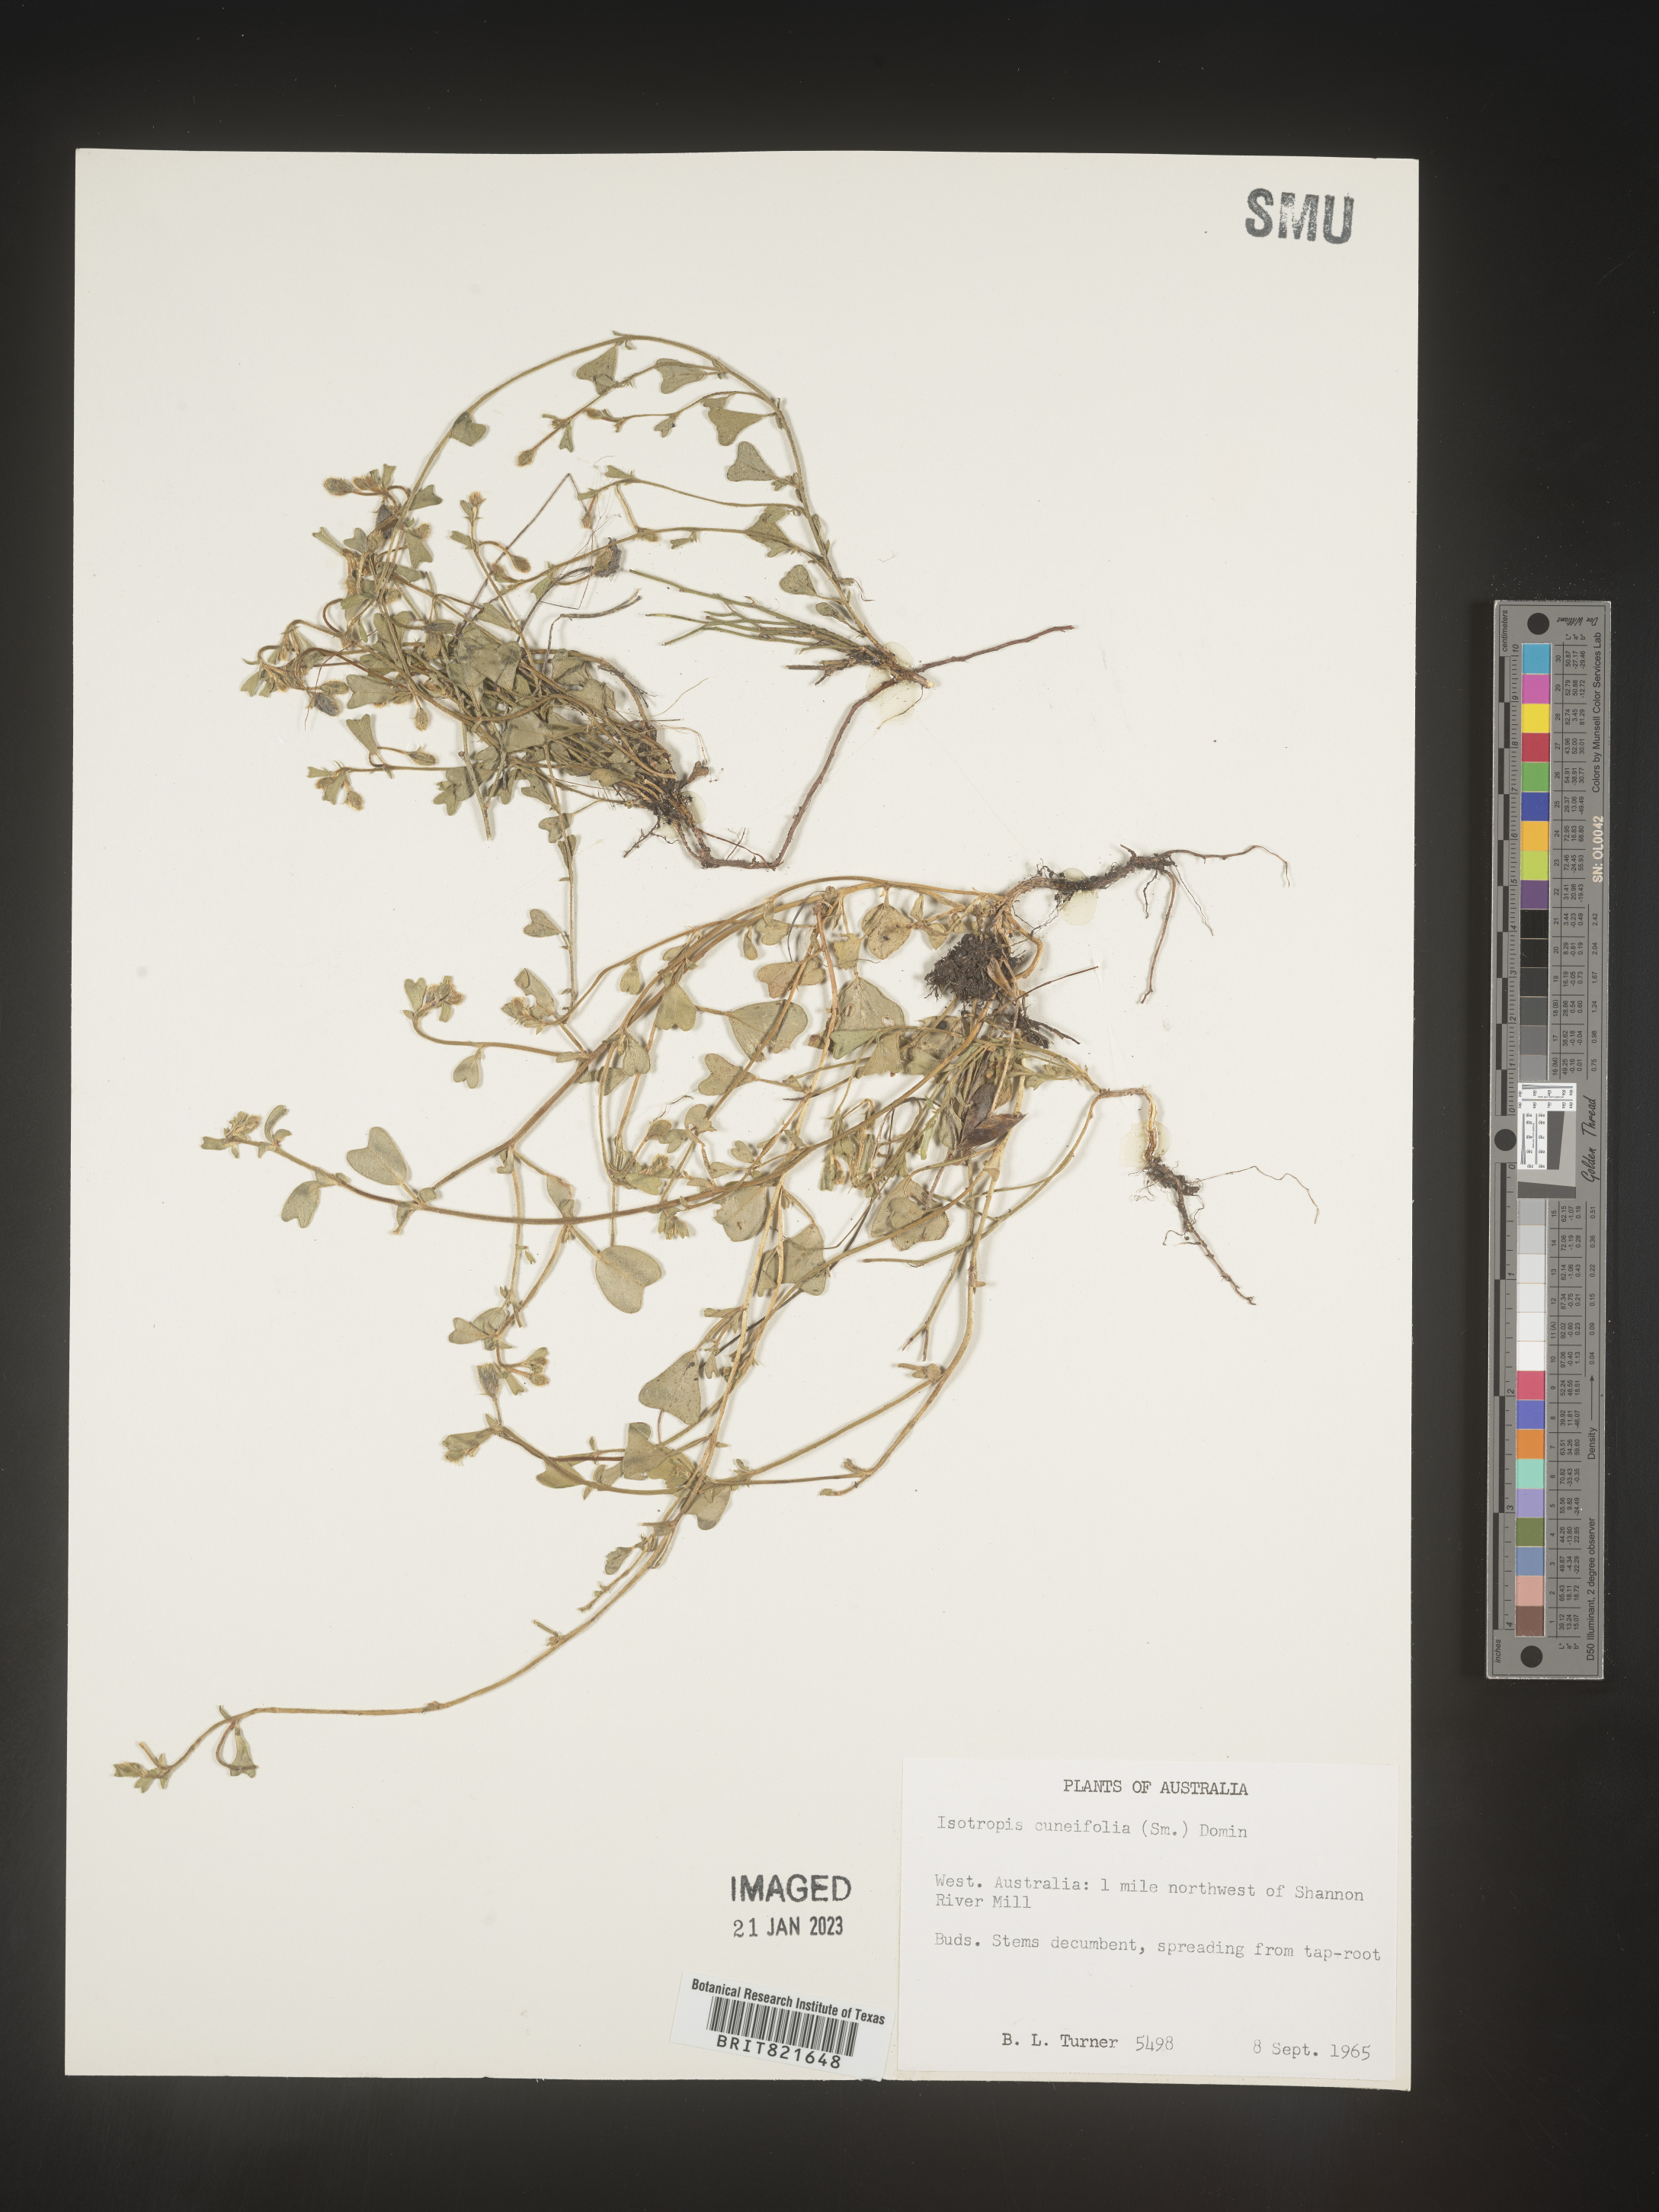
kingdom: Plantae
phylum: Tracheophyta
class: Magnoliopsida
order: Fabales
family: Fabaceae
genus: Isotropis
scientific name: Isotropis
